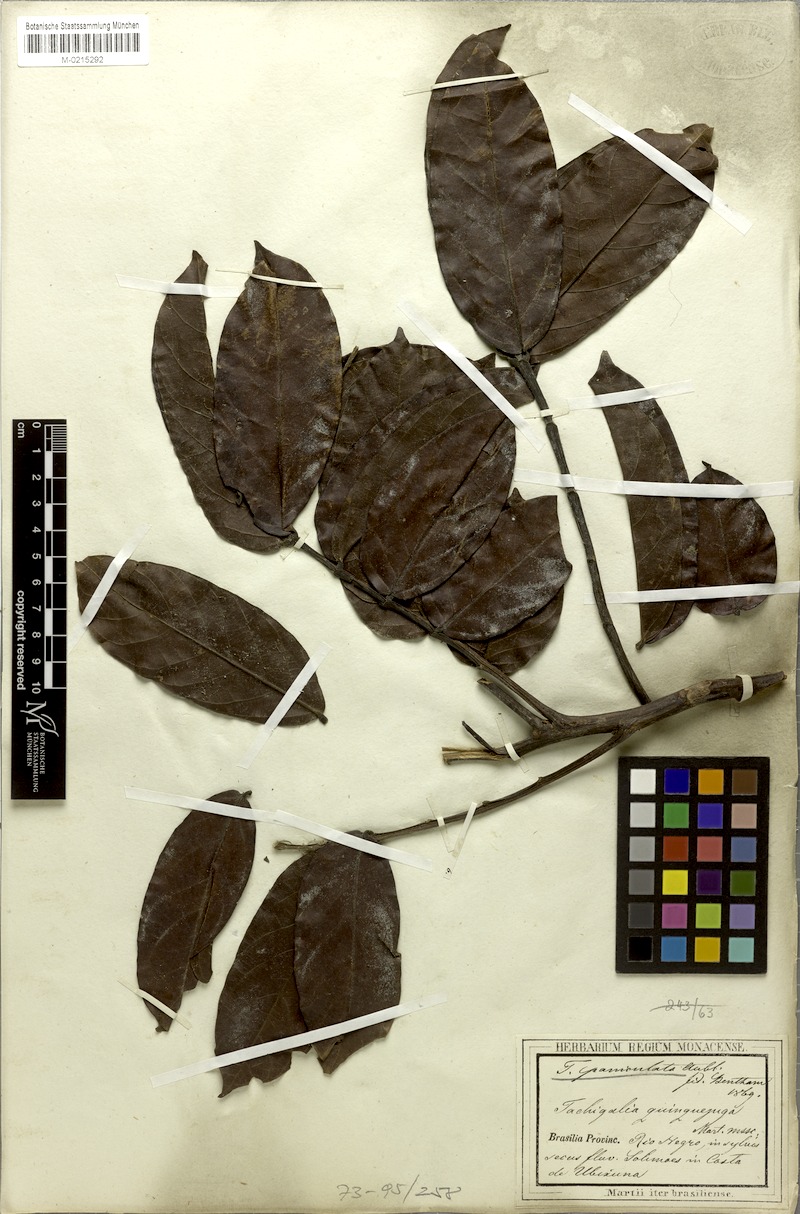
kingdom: Plantae
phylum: Tracheophyta
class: Magnoliopsida
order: Fabales
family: Fabaceae
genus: Tachigali
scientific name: Tachigali paniculata
